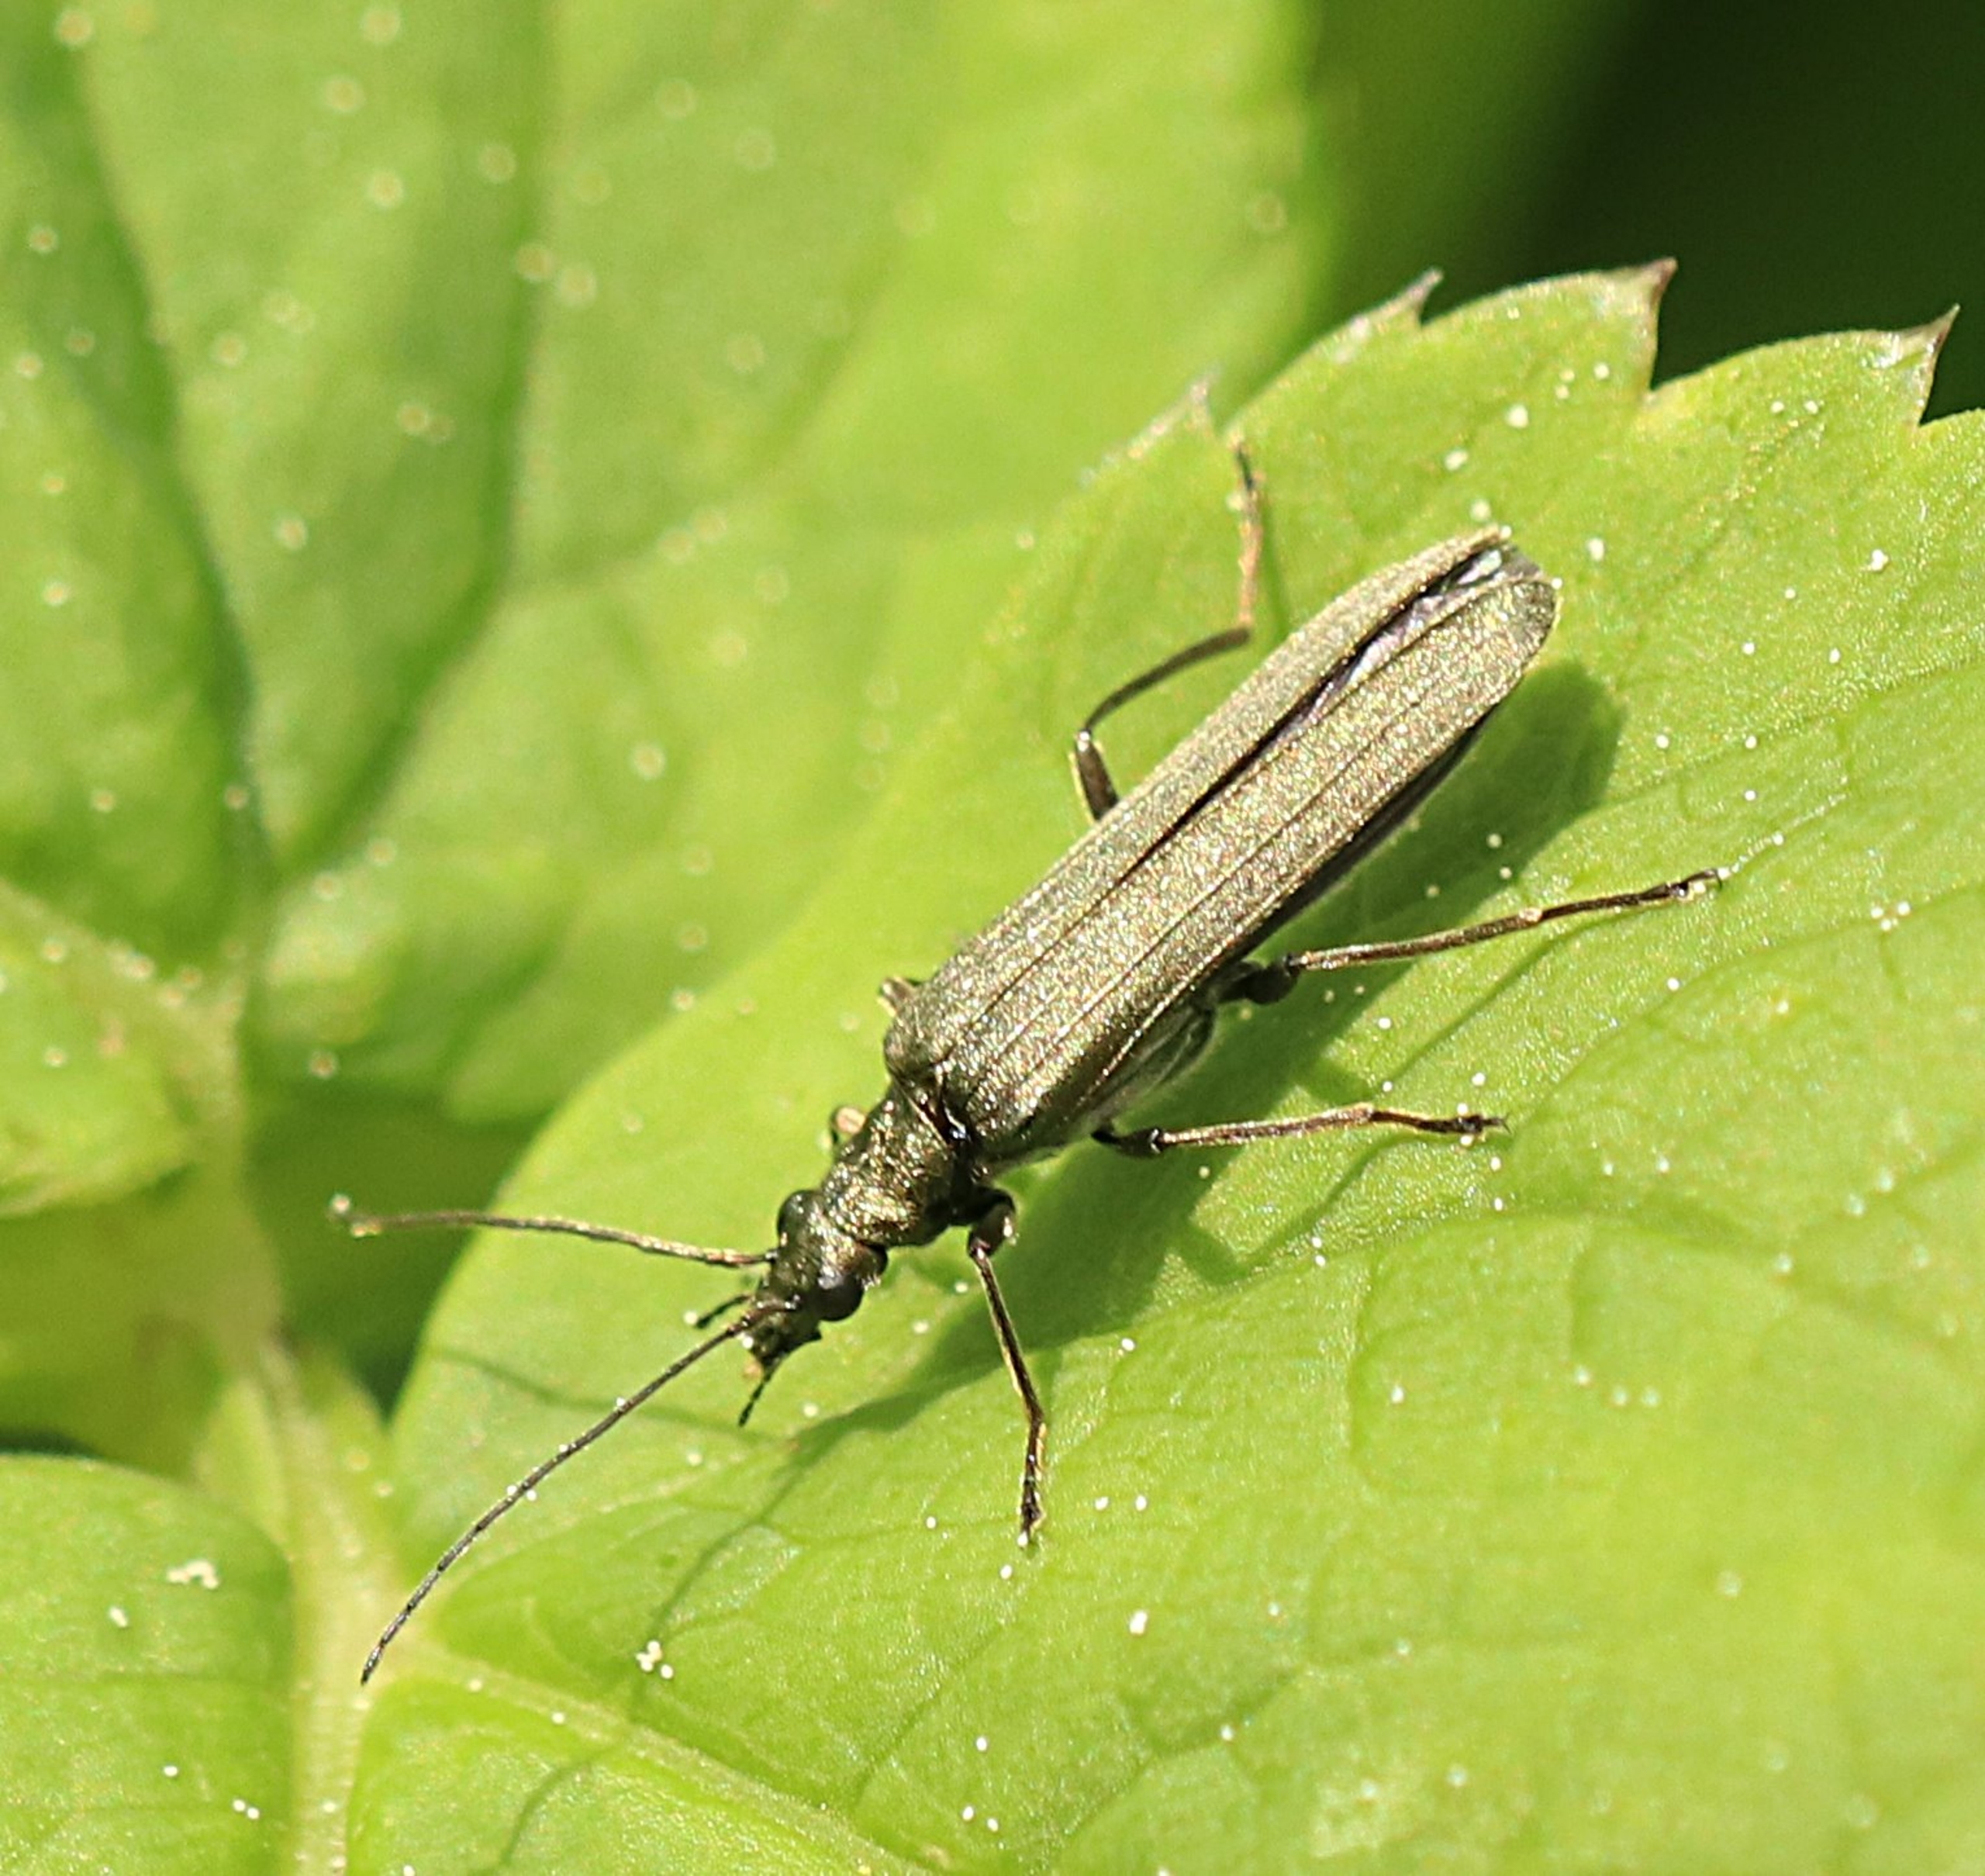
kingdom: Animalia
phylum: Arthropoda
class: Insecta
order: Coleoptera
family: Oedemeridae
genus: Oedemera
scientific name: Oedemera virescens
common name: Matgrøn solbille
